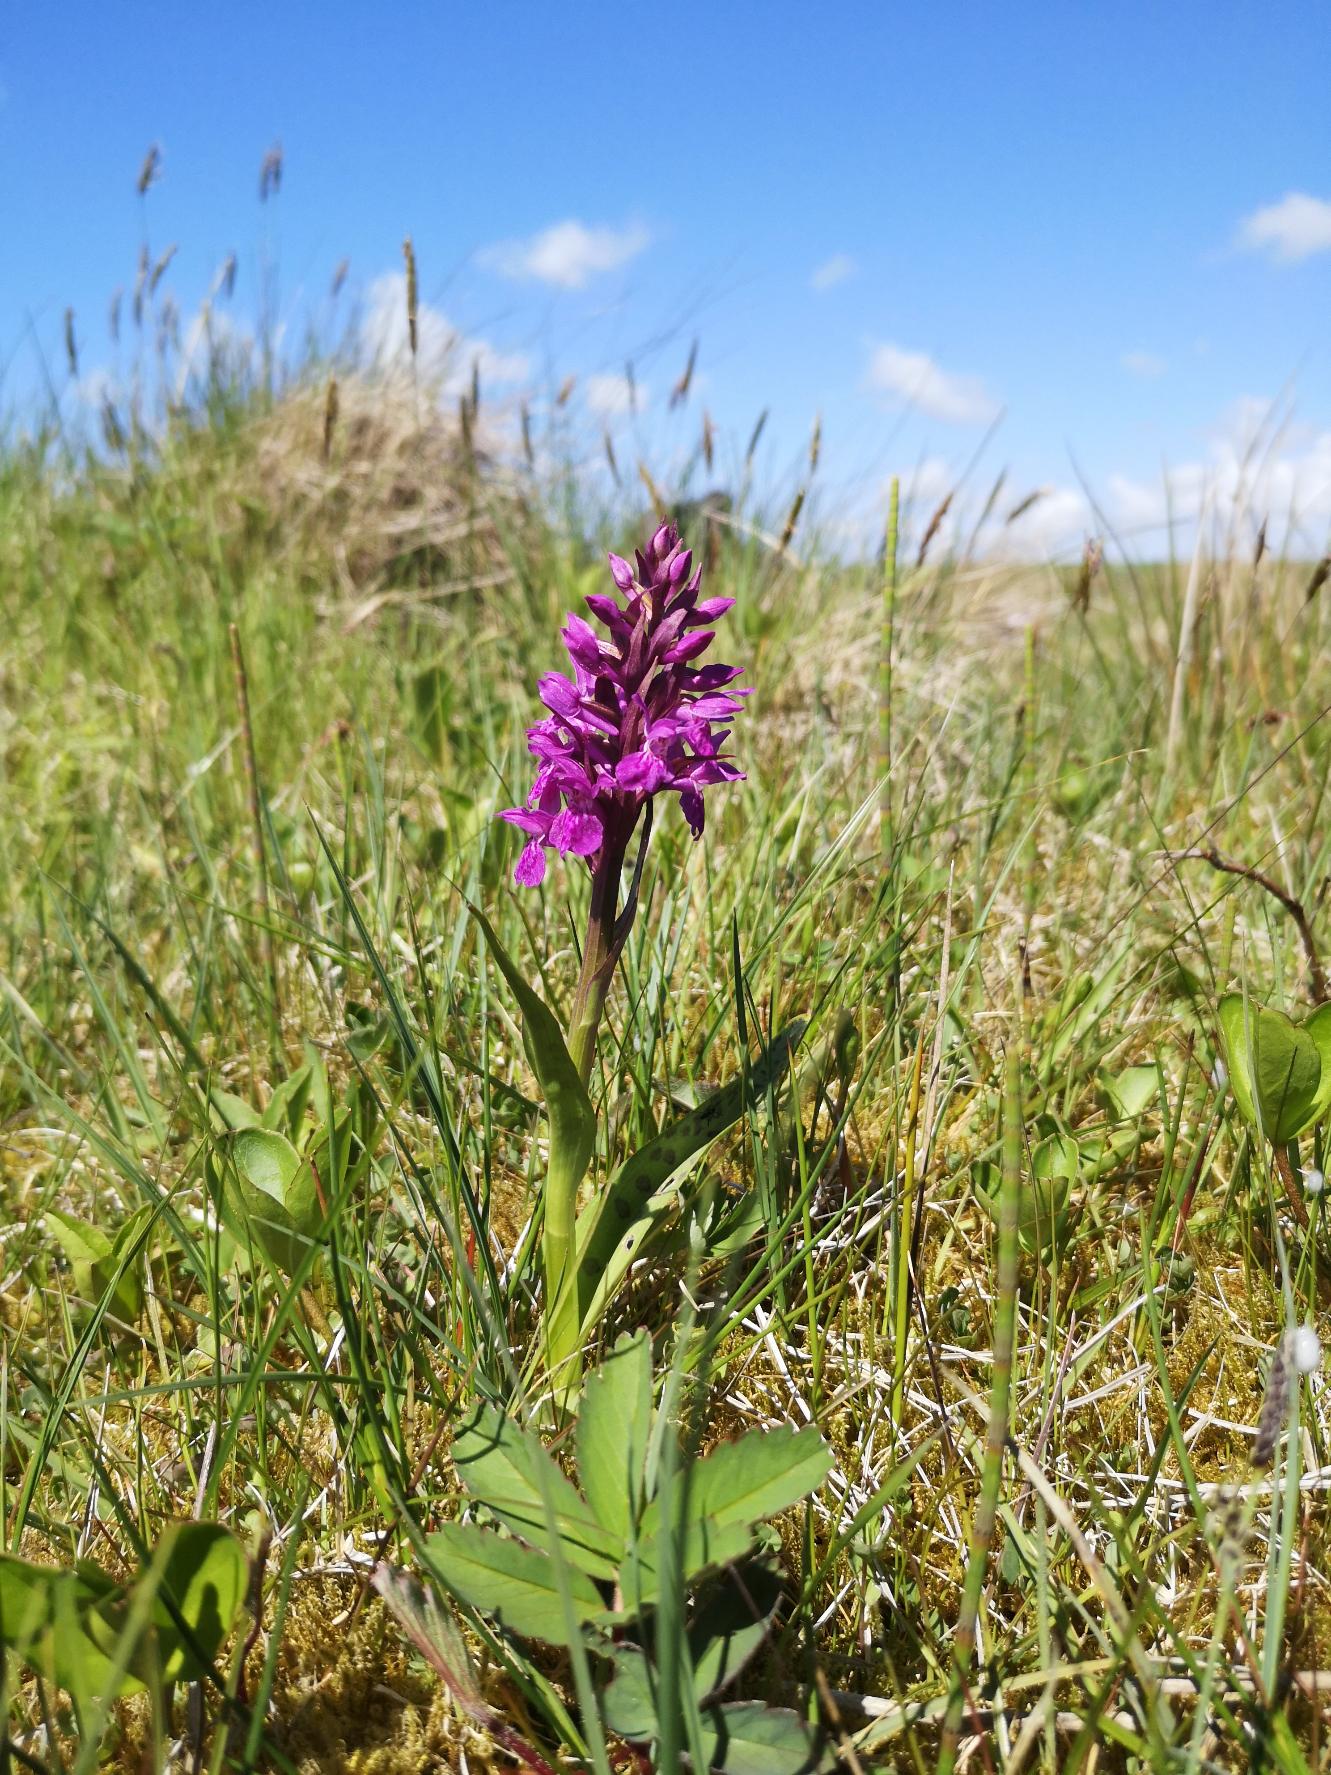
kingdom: Plantae
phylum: Tracheophyta
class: Liliopsida
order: Asparagales
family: Orchidaceae
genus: Dactylorhiza
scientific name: Dactylorhiza majalis
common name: Maj-gøgeurt
